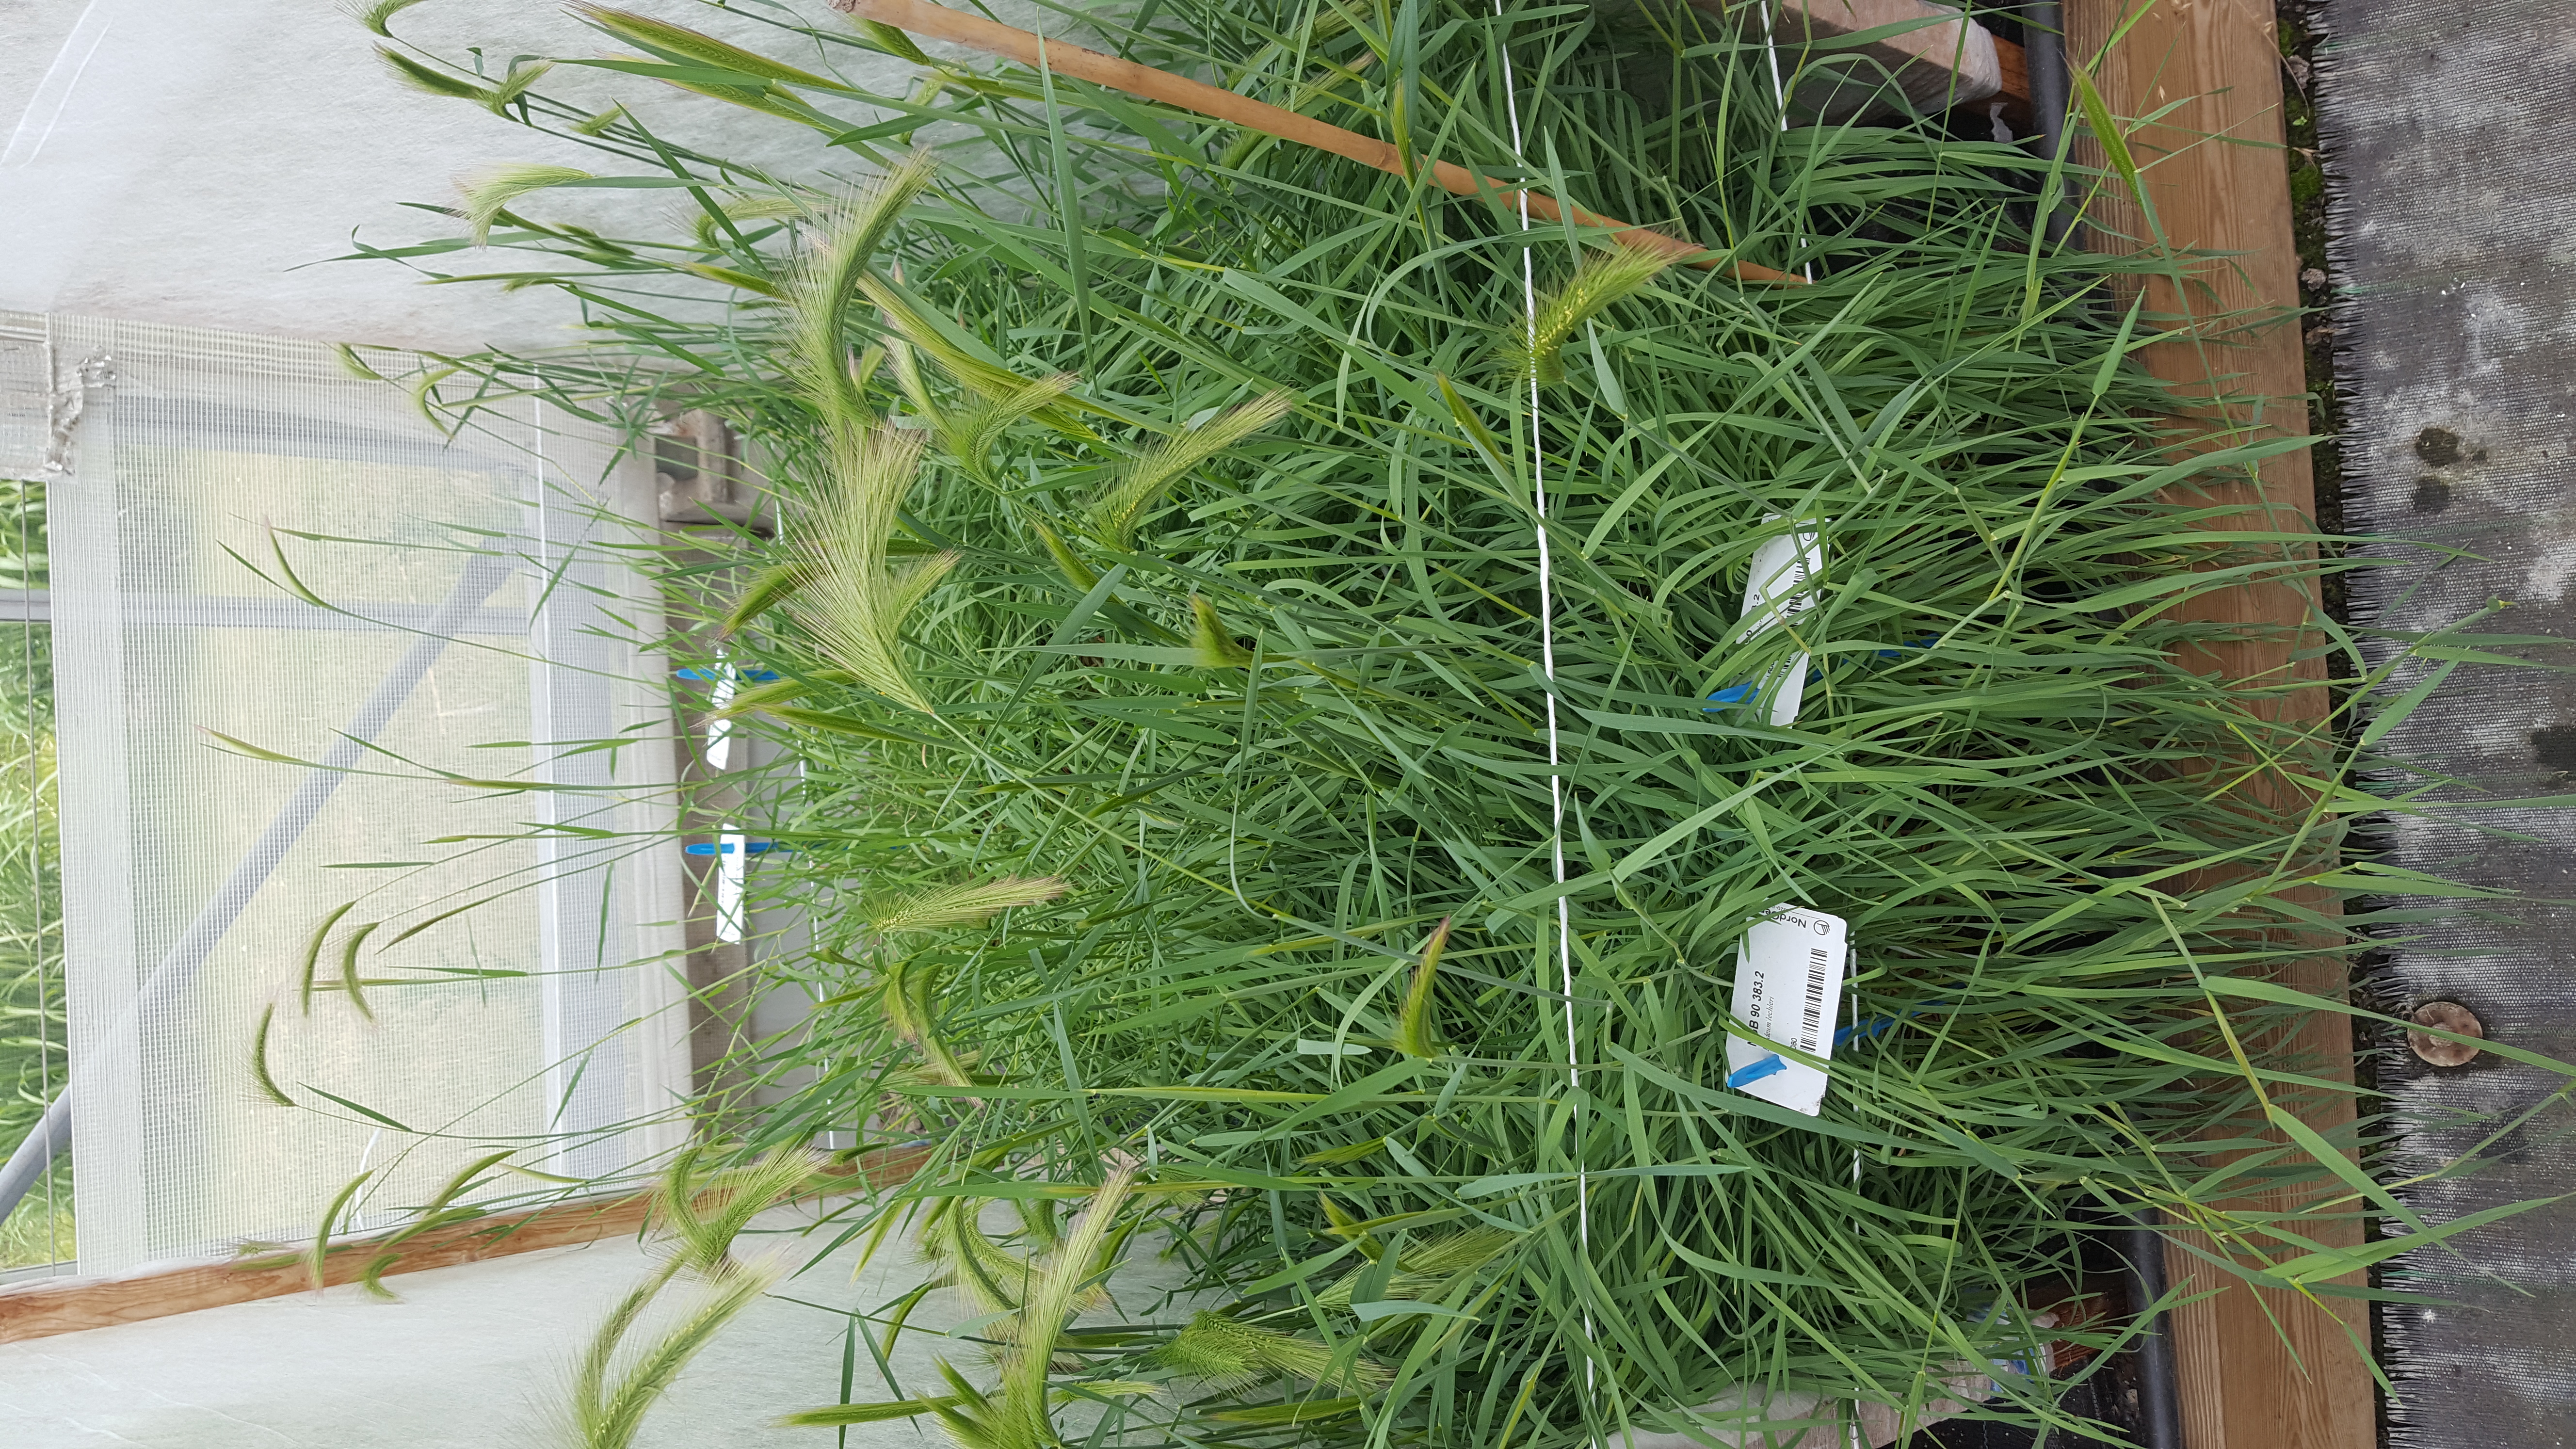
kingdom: Plantae
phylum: Tracheophyta
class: Liliopsida
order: Poales
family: Poaceae
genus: Hordeum
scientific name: Hordeum lechleri
